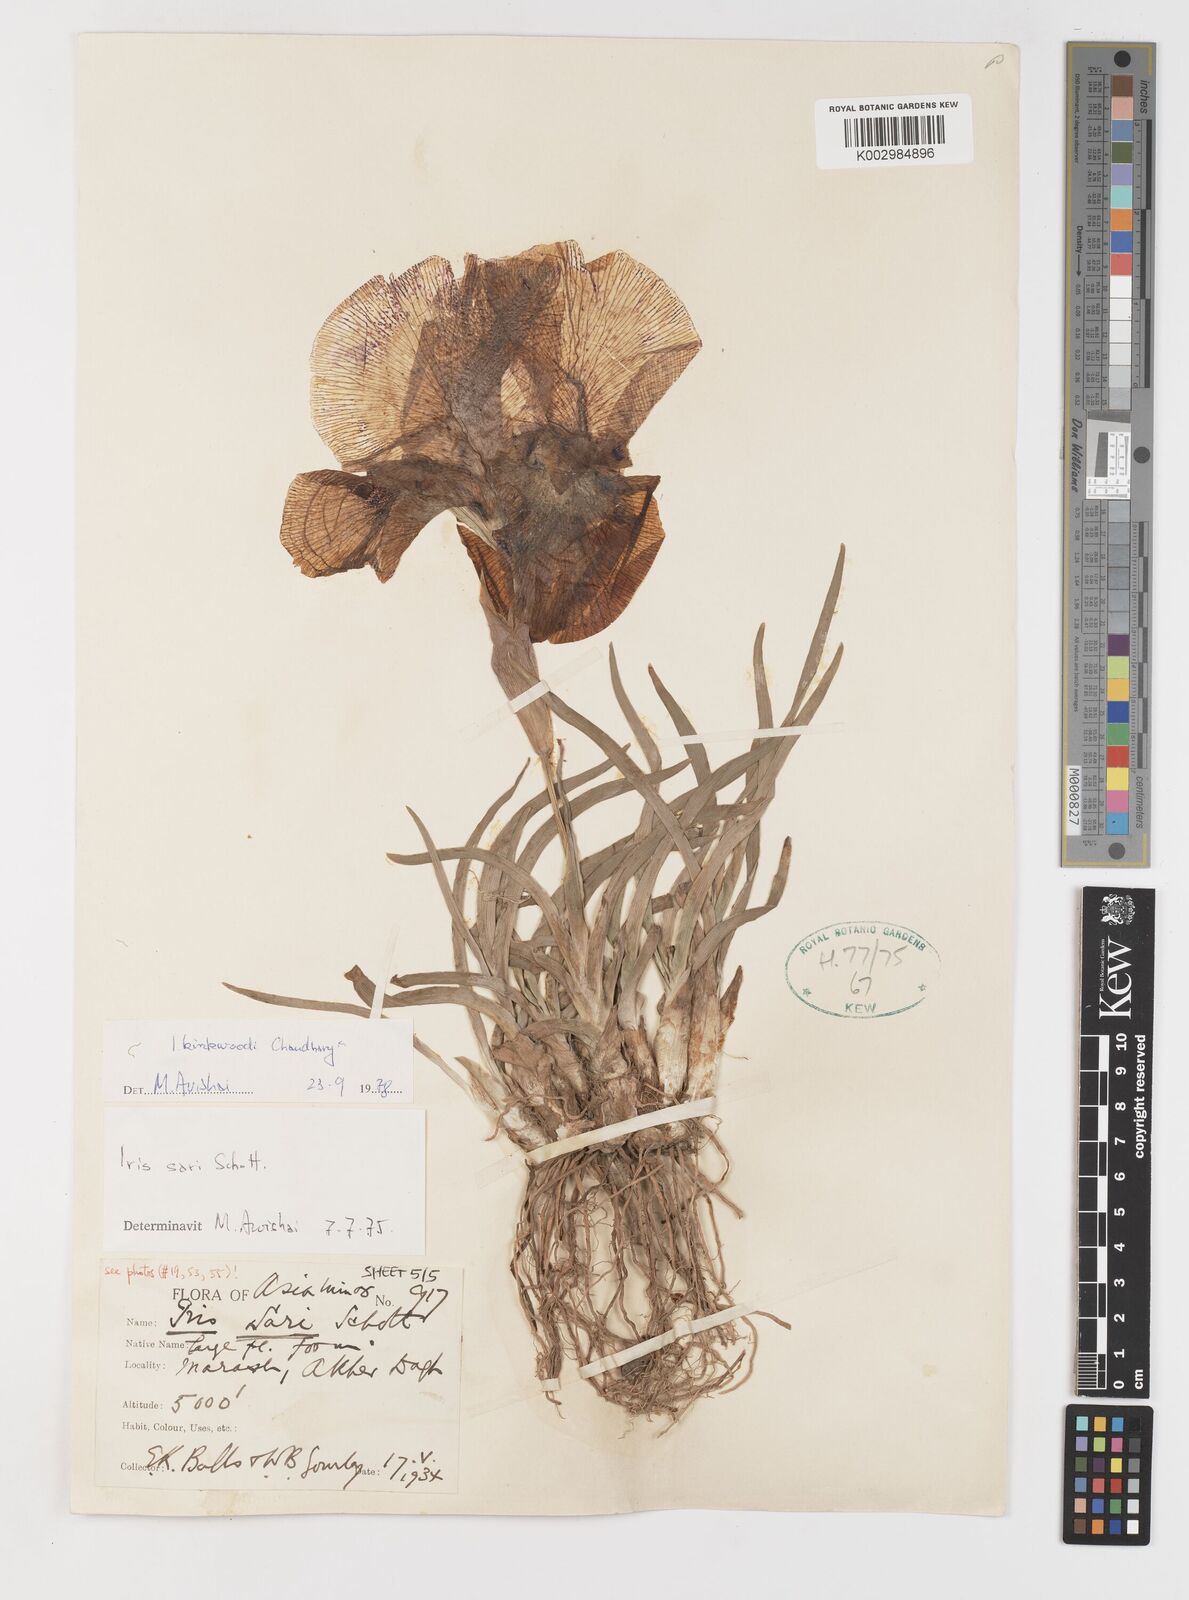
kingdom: Plantae
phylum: Tracheophyta
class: Liliopsida
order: Asparagales
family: Iridaceae
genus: Iris
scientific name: Iris kirkwoodiae
